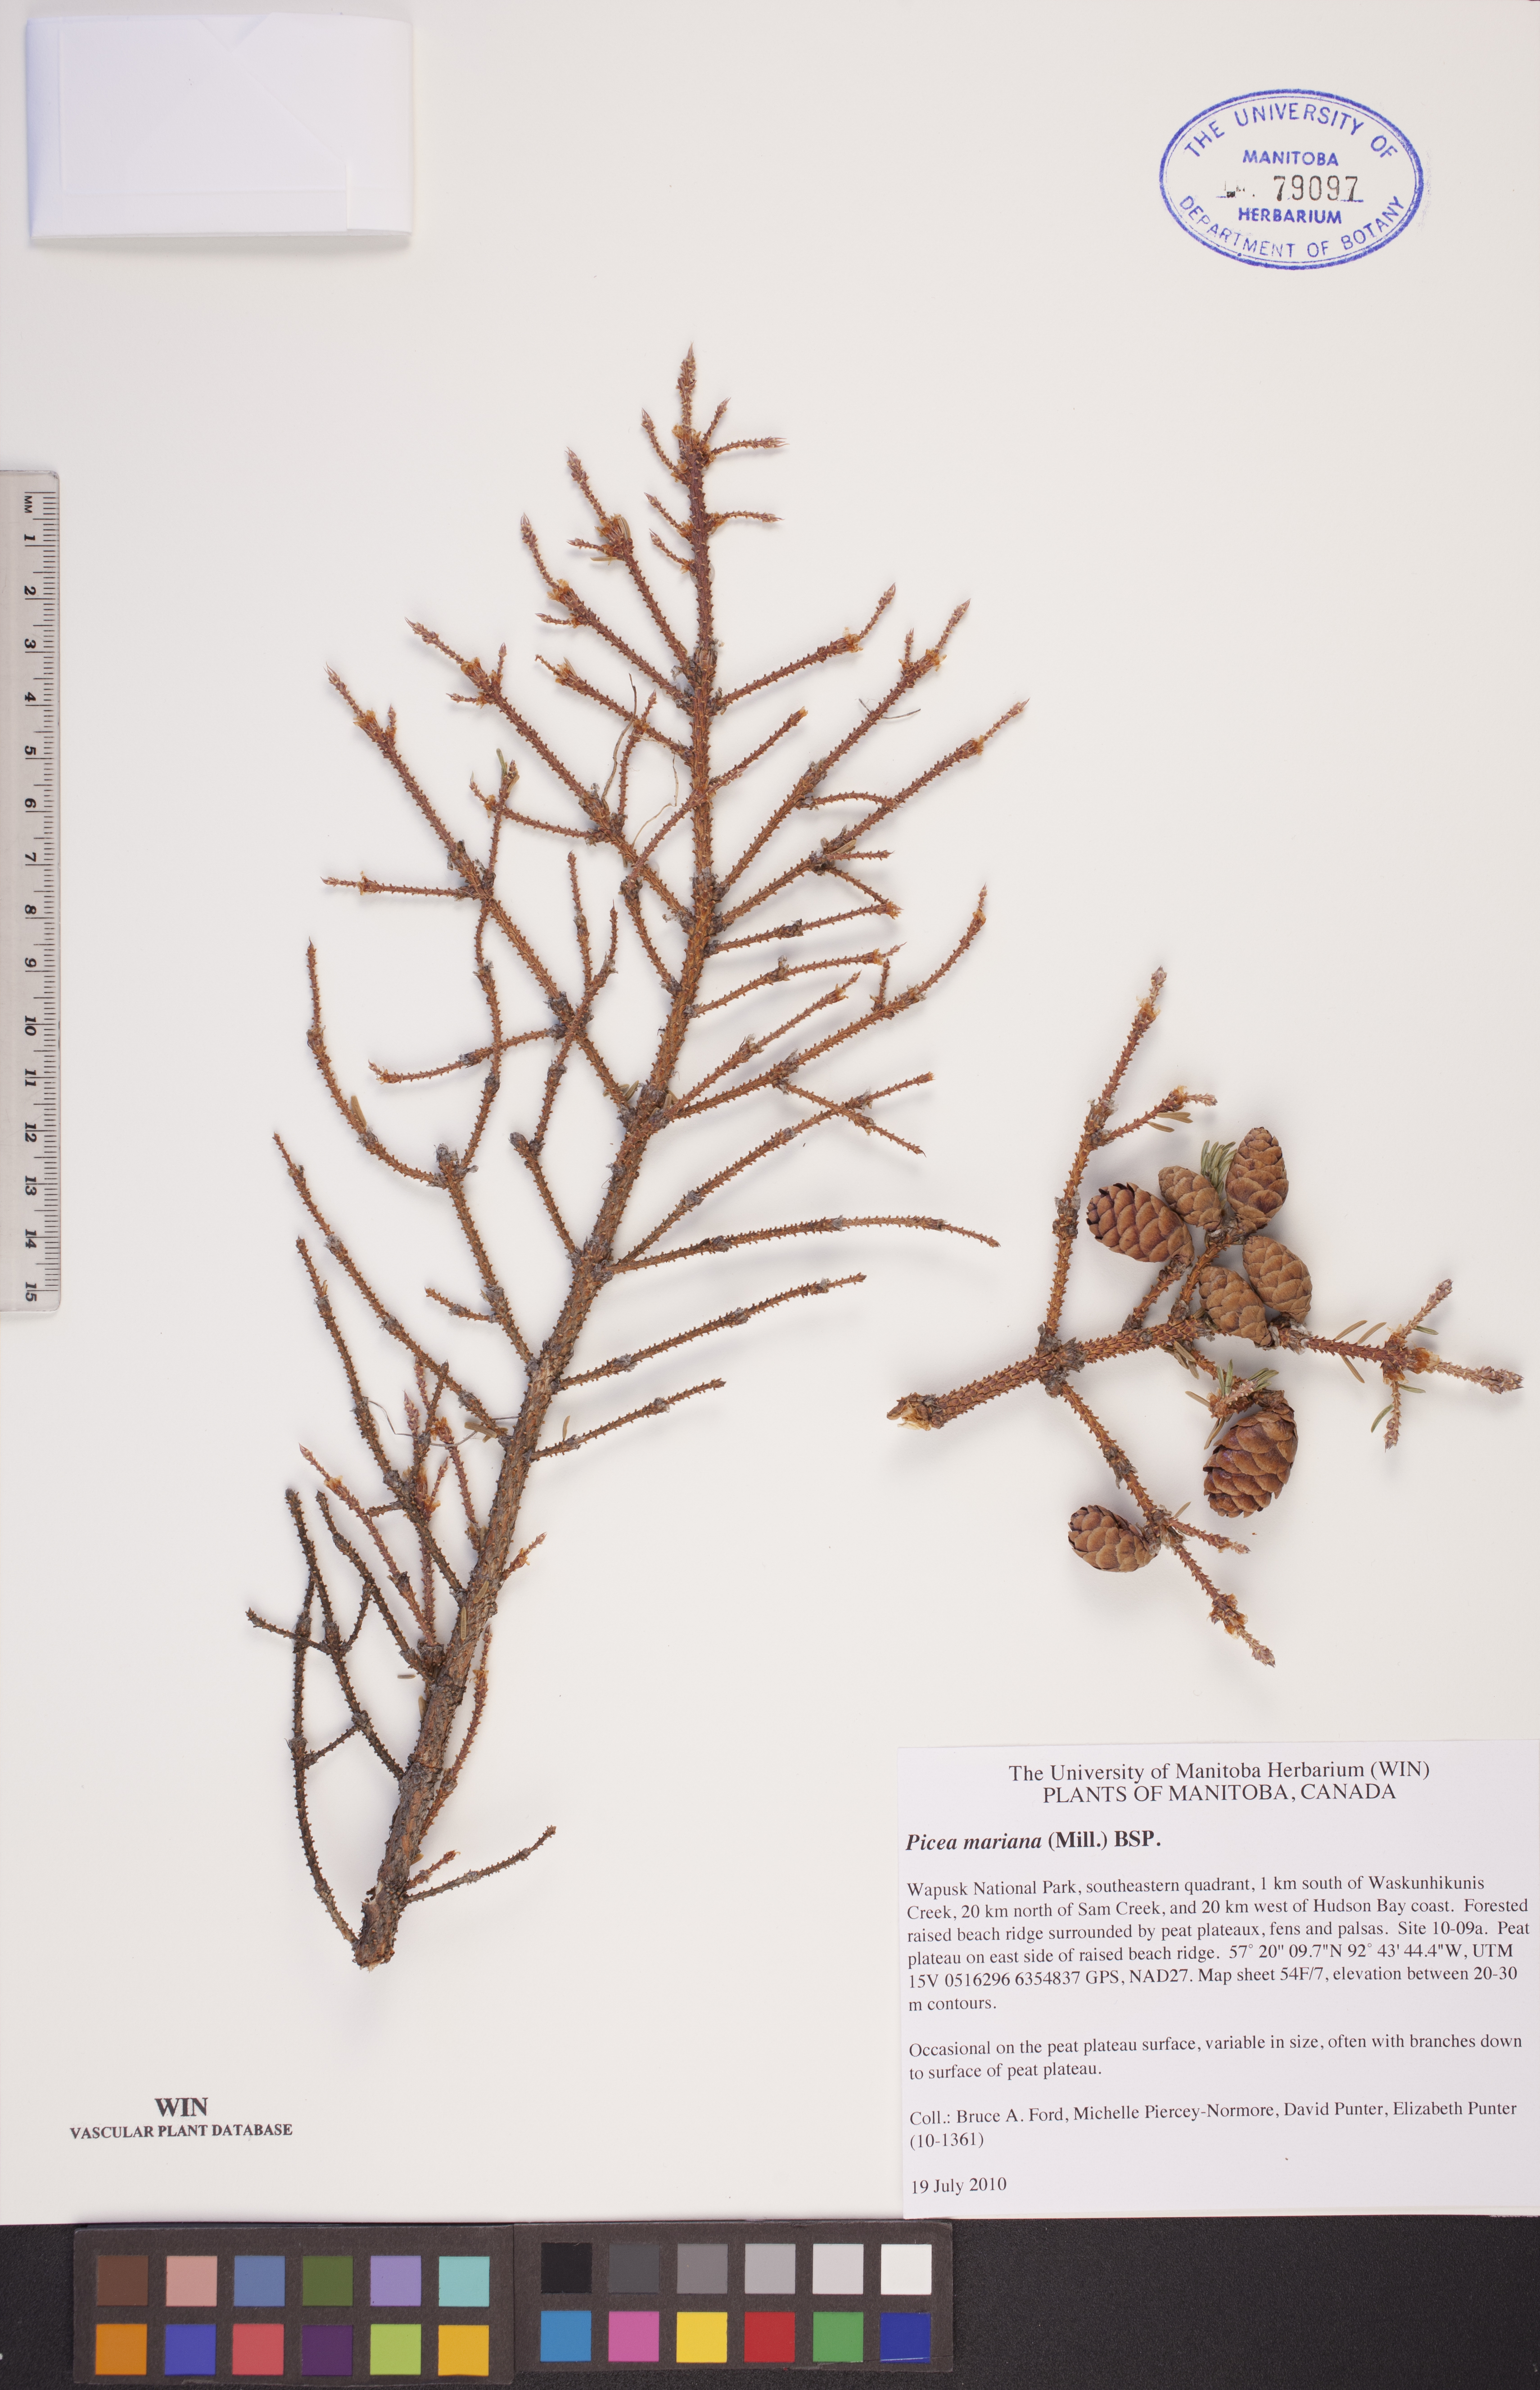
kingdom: Plantae
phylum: Tracheophyta
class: Pinopsida
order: Pinales
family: Pinaceae
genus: Picea
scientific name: Picea mariana
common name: Black spruce
